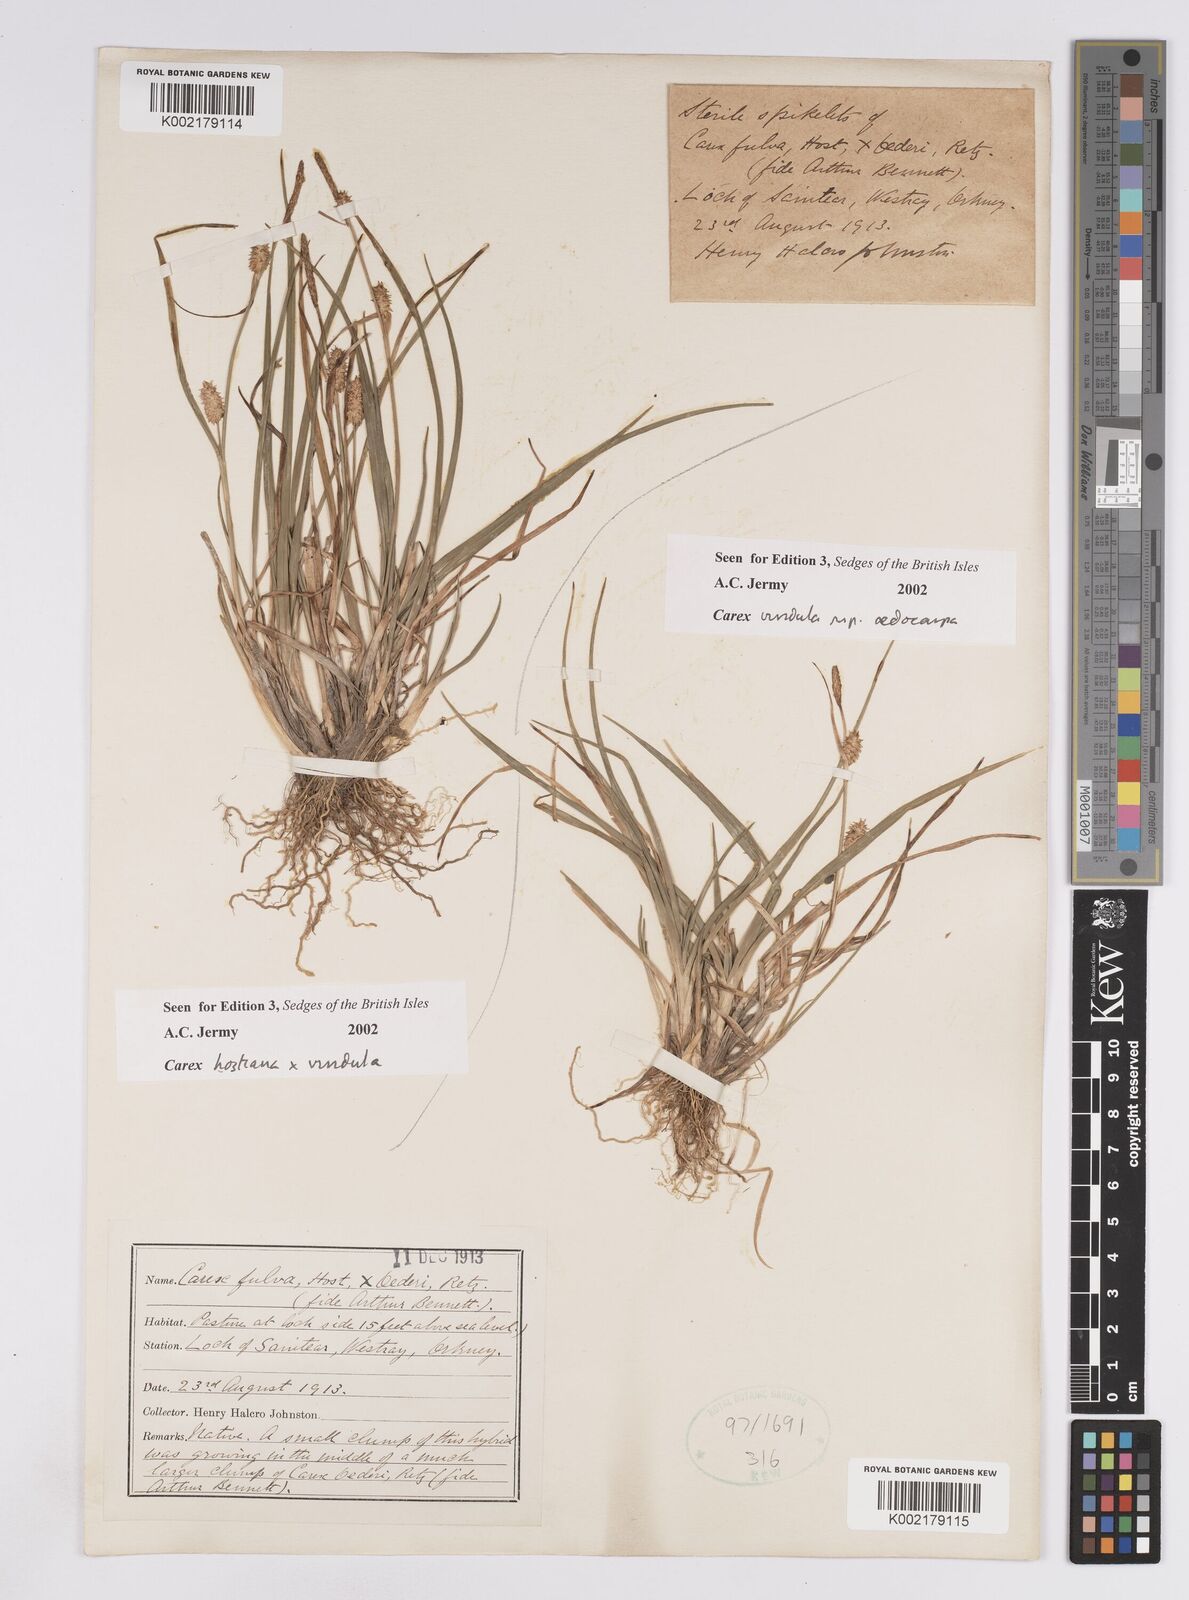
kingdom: Plantae
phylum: Tracheophyta
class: Liliopsida
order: Poales
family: Cyperaceae
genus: Carex
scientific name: Carex demissa
